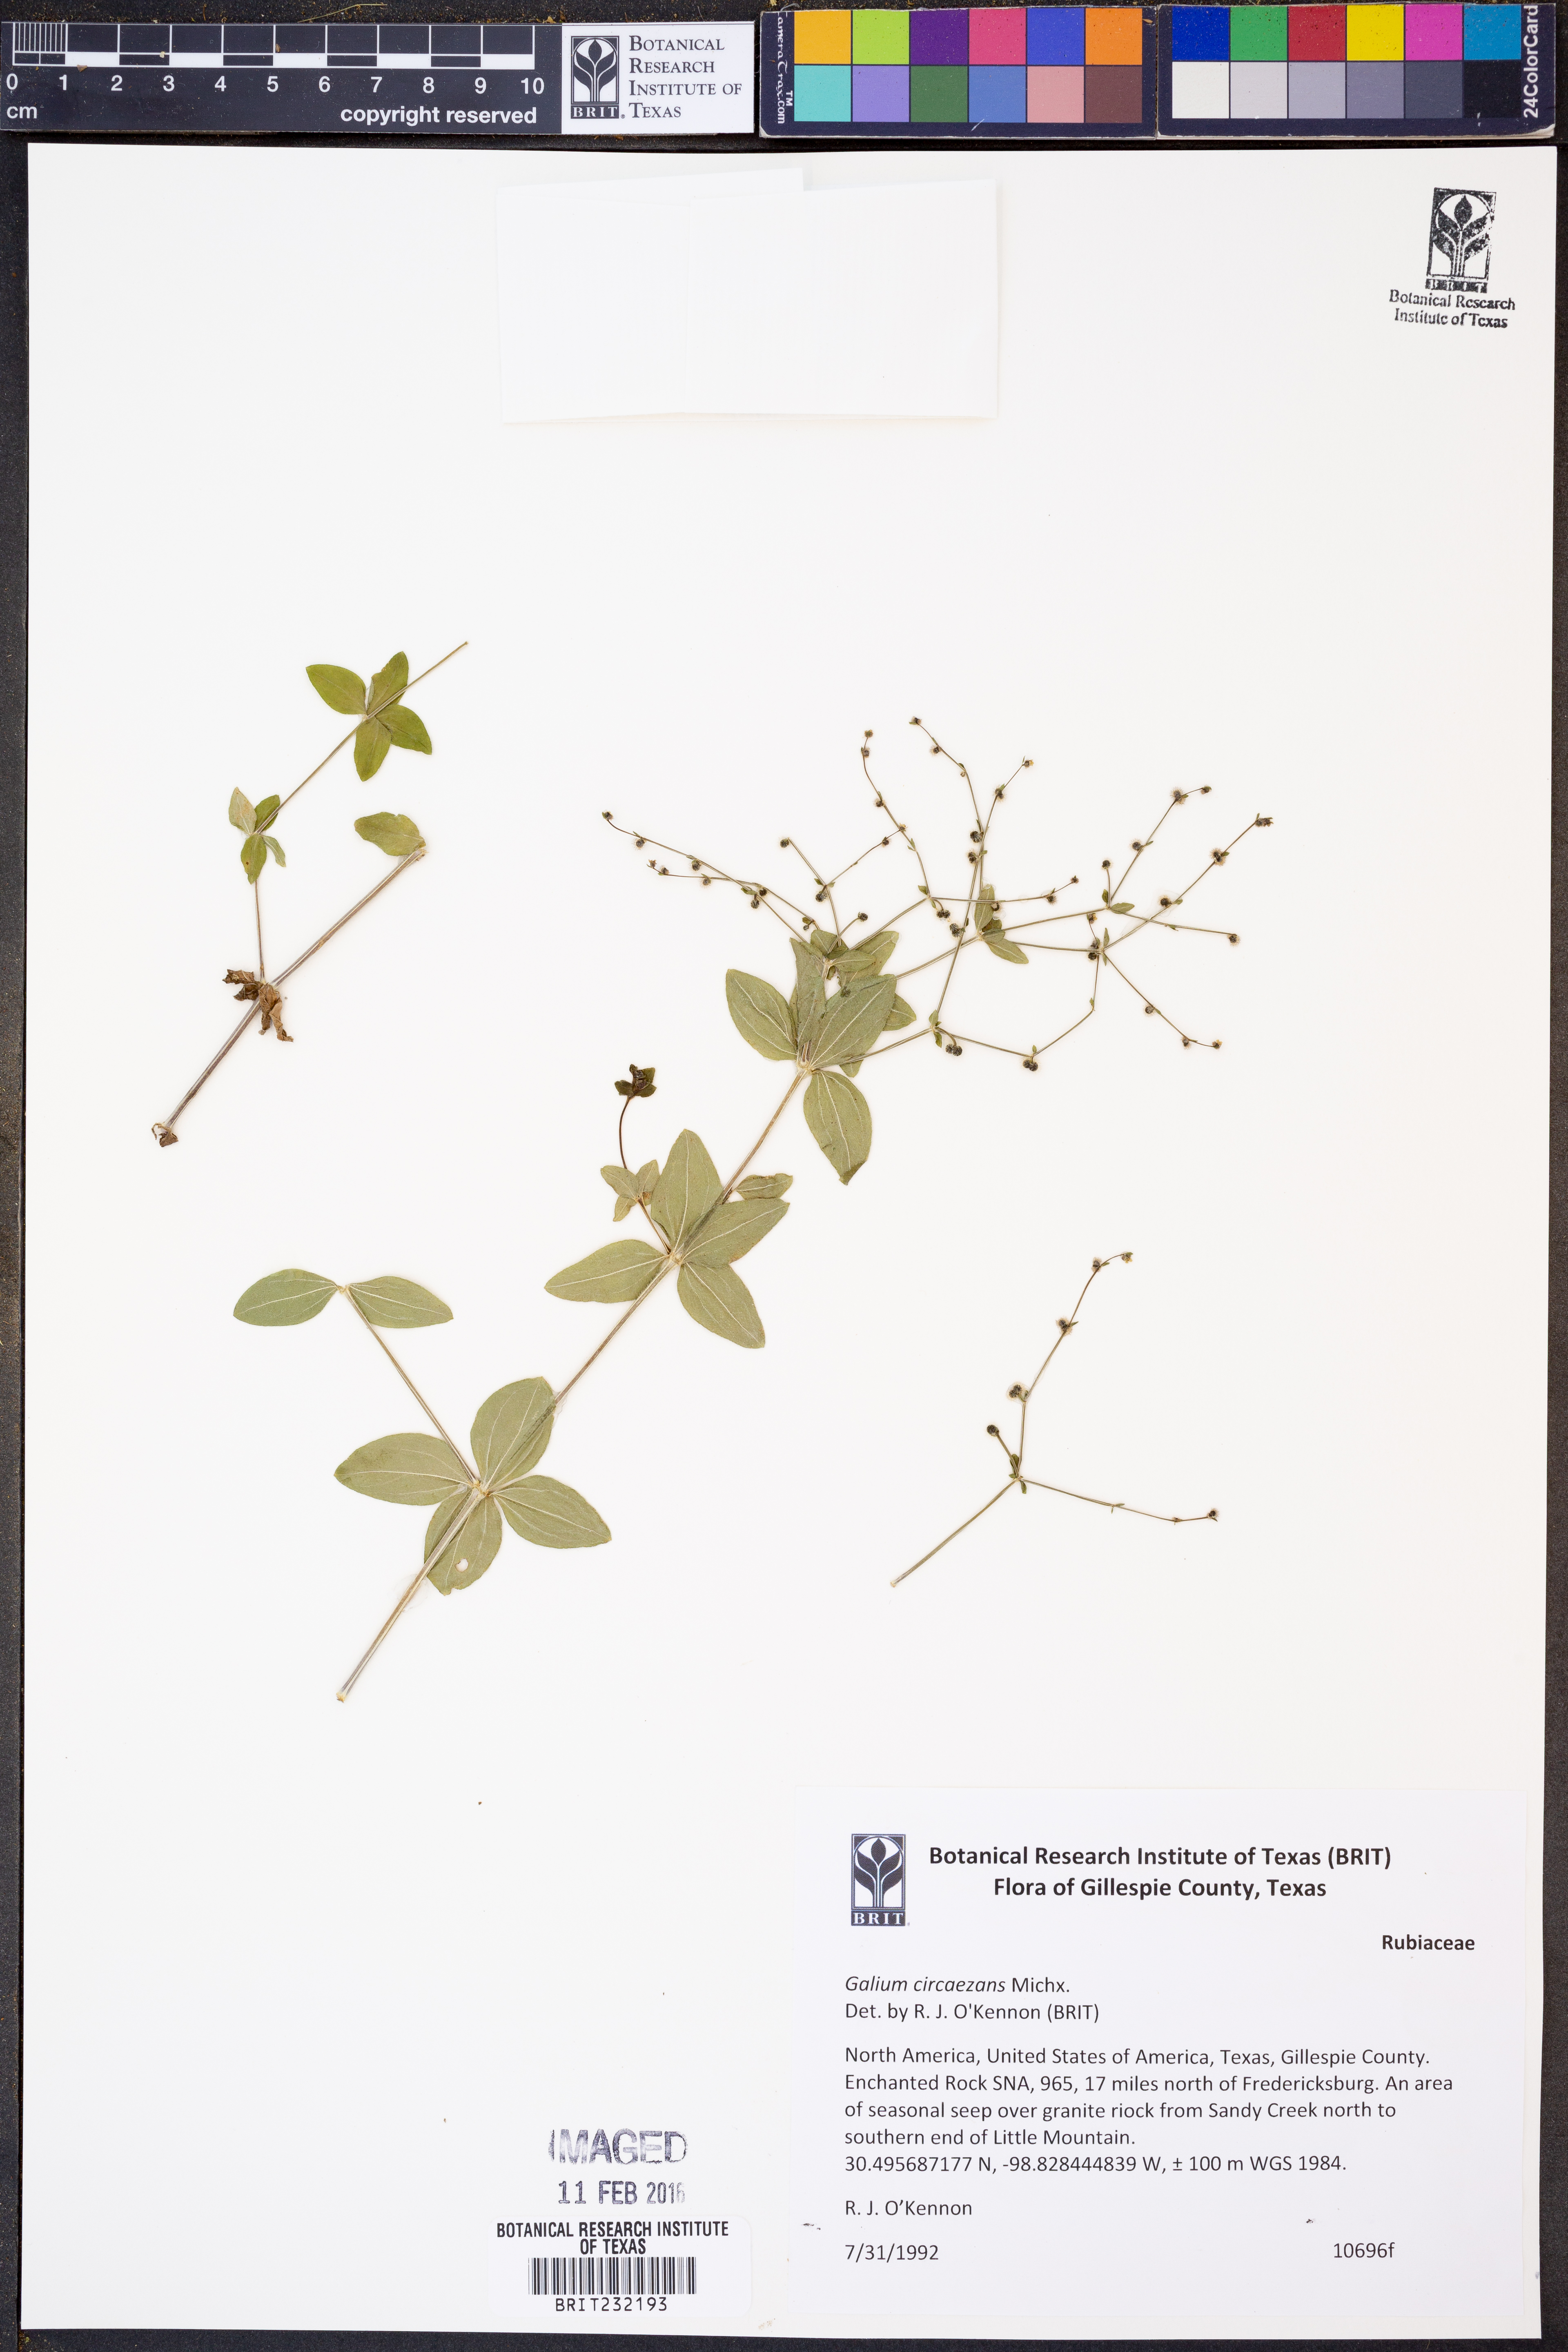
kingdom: Plantae
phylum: Tracheophyta
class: Magnoliopsida
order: Gentianales
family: Rubiaceae
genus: Galium
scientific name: Galium circaezans
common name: Forest bedstraw
